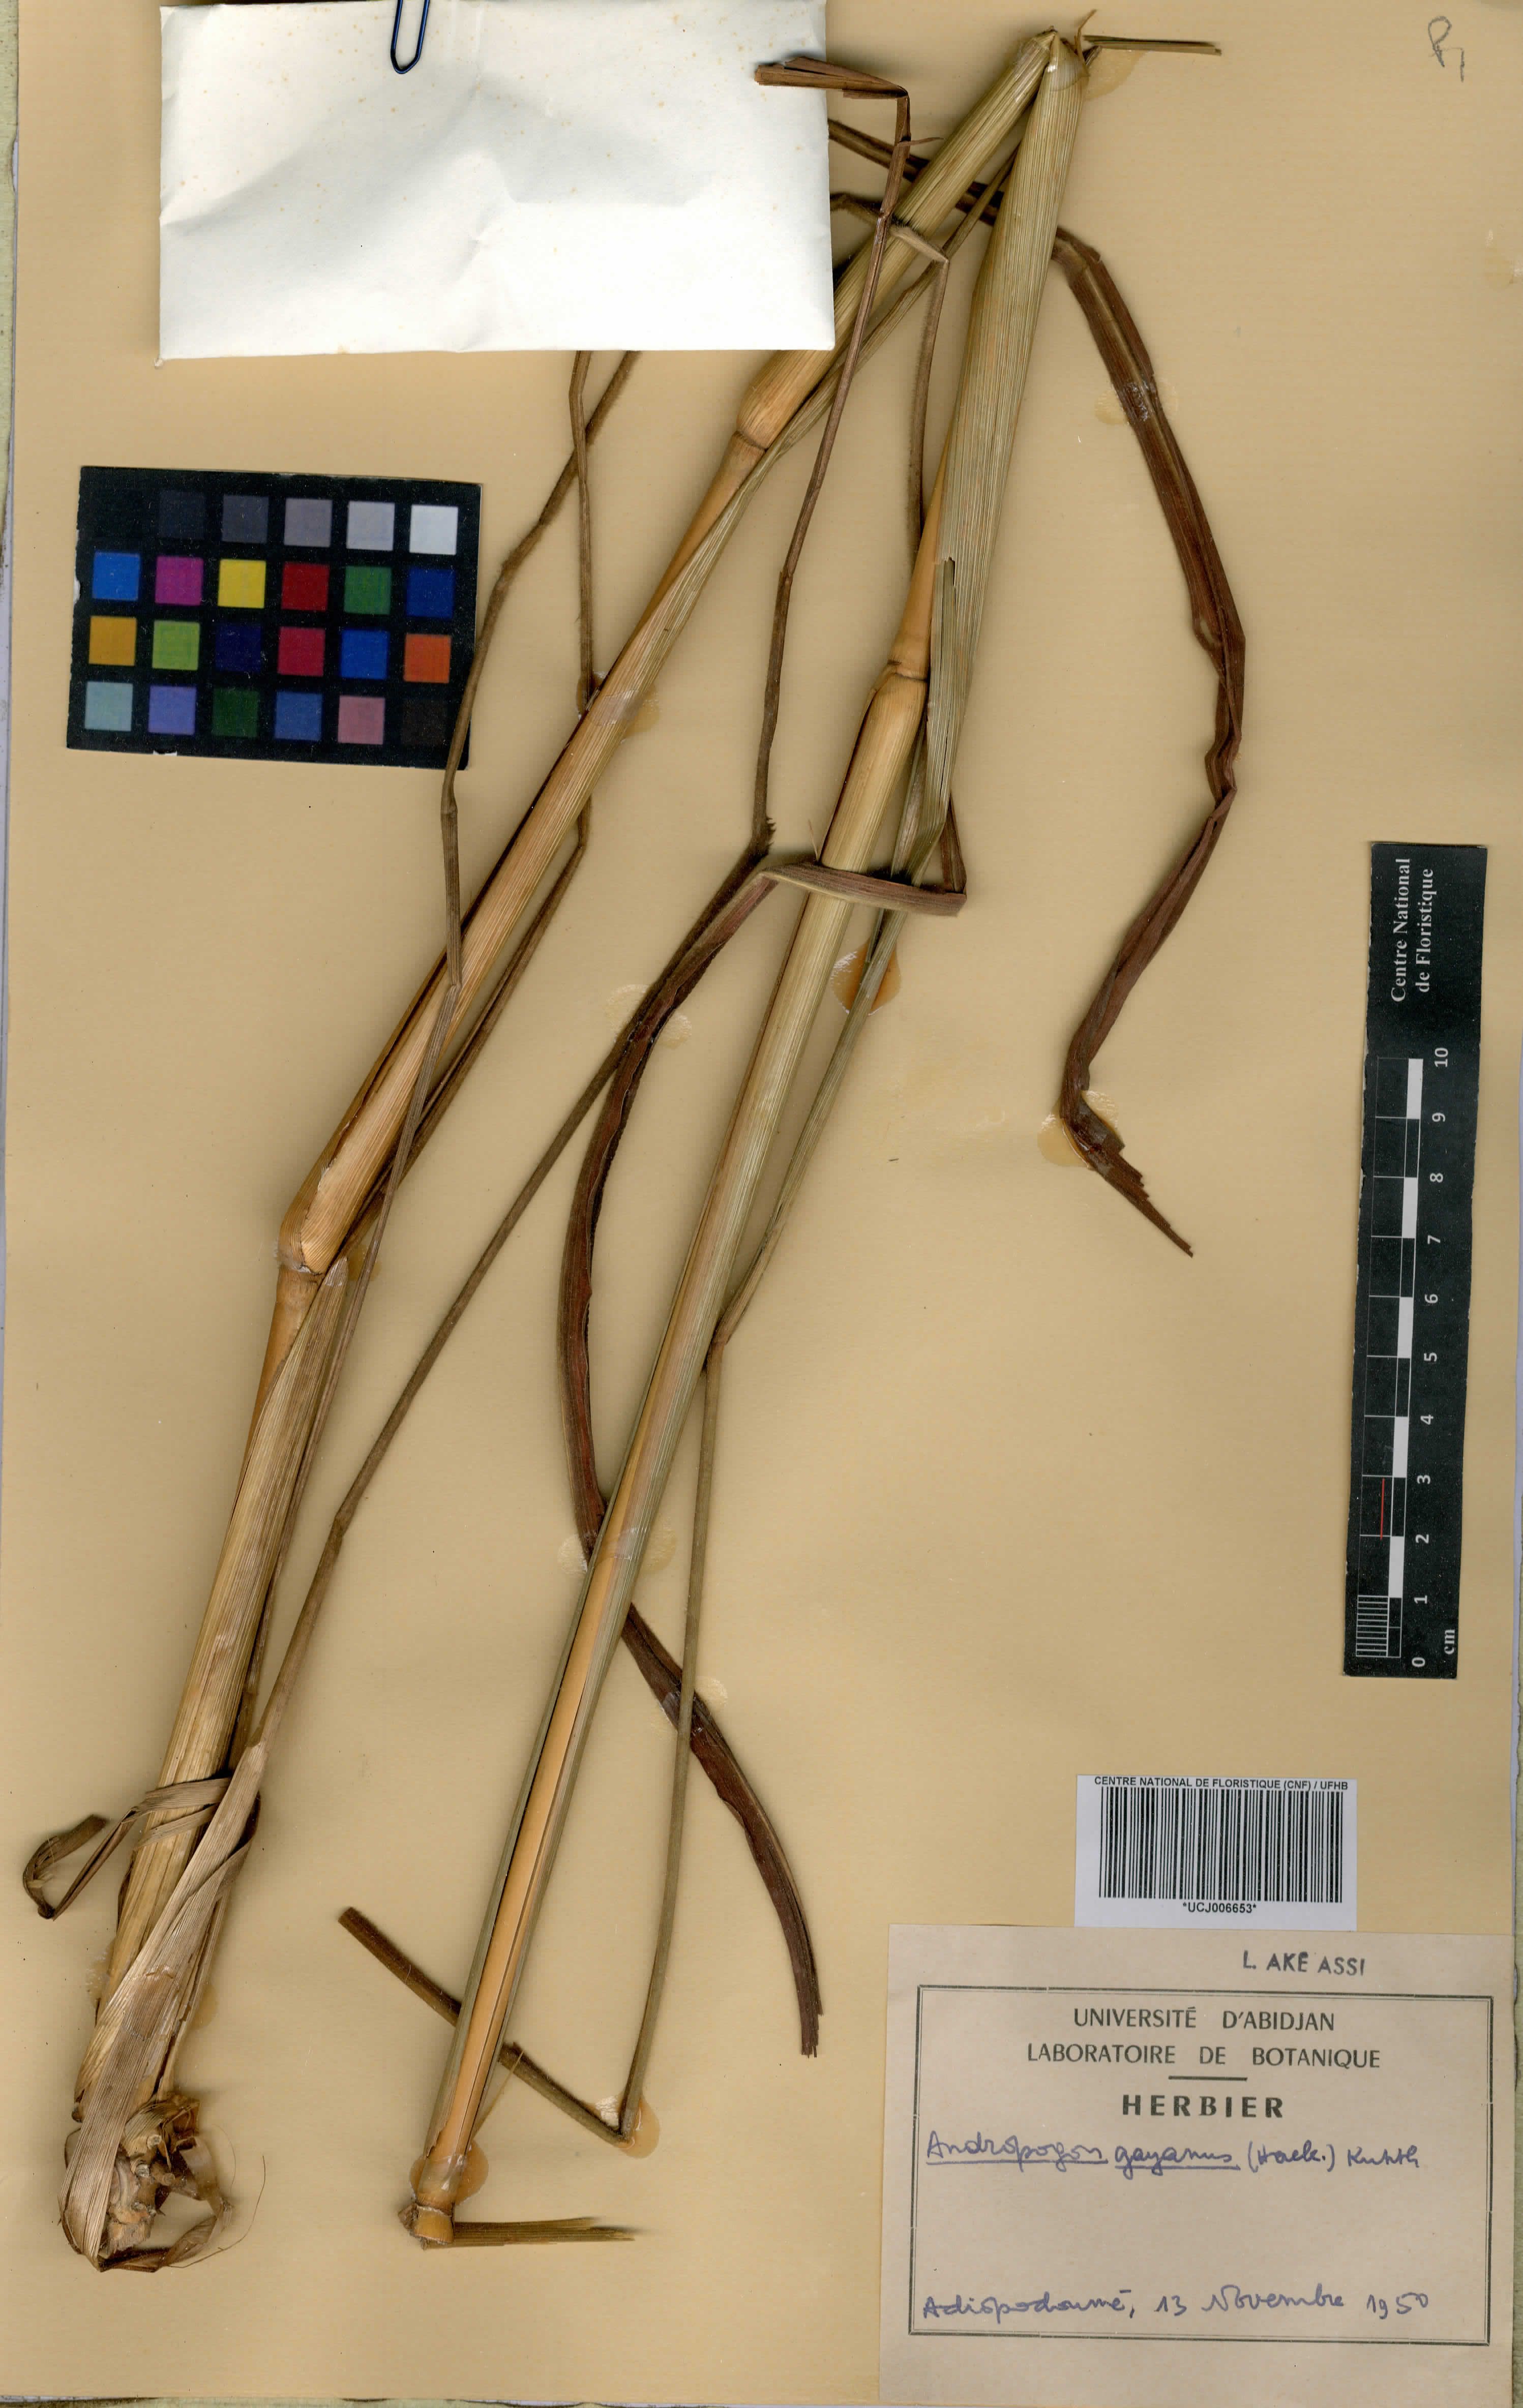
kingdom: Plantae
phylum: Tracheophyta
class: Liliopsida
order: Poales
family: Poaceae
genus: Andropogon
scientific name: Andropogon gayanus
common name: Tambuki grass
